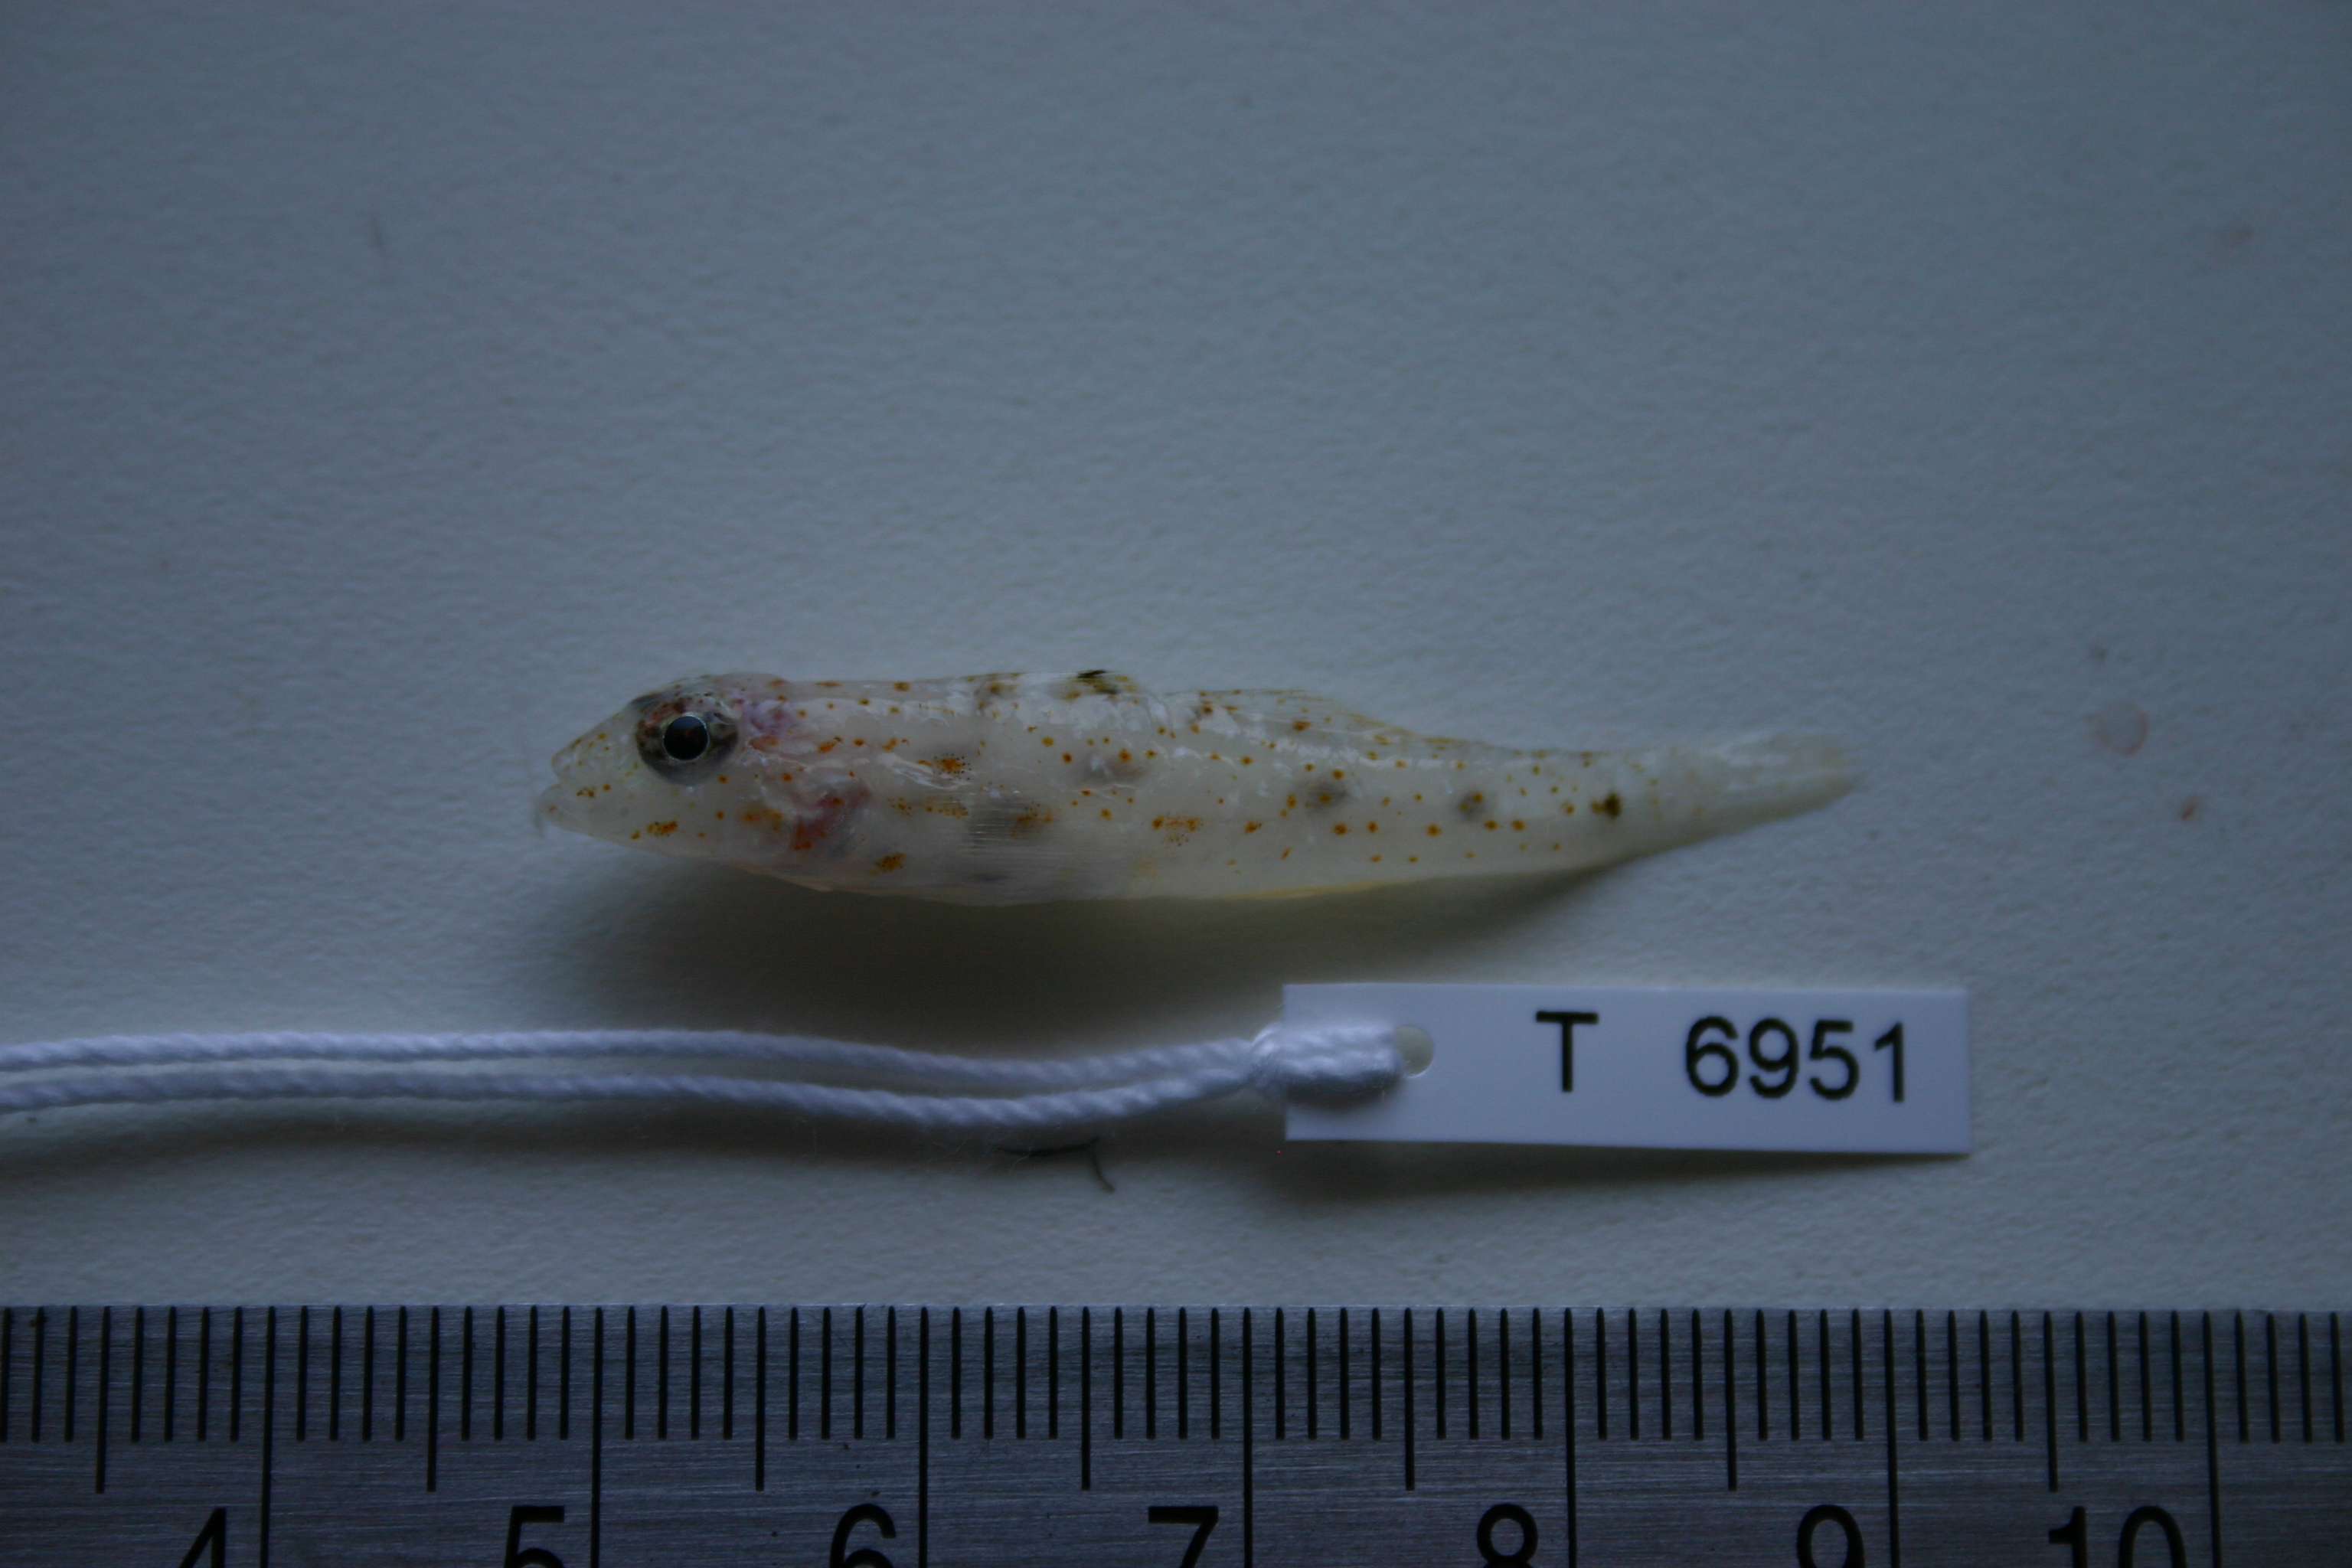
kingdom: Animalia
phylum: Chordata
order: Perciformes
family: Gobiidae
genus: Fusigobius
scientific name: Fusigobius duospilus
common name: Twospot goby
